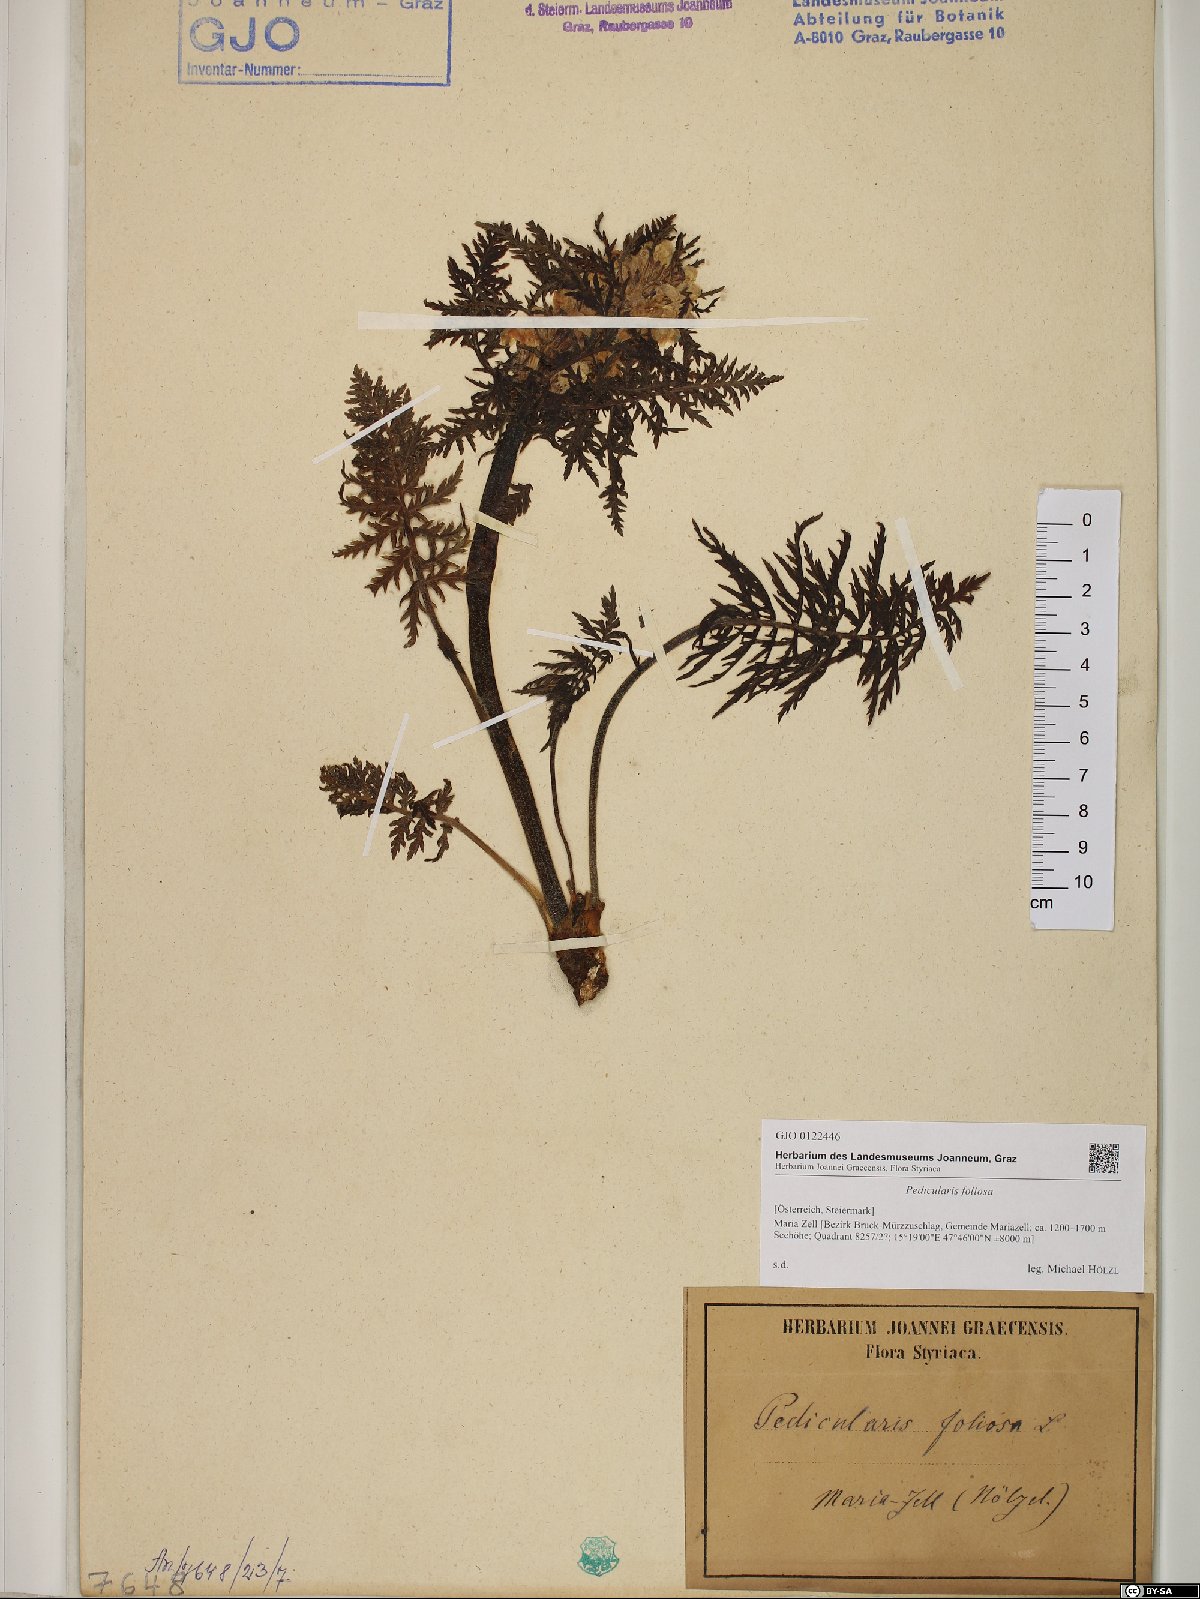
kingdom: Plantae
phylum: Tracheophyta
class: Magnoliopsida
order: Lamiales
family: Orobanchaceae
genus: Pedicularis
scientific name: Pedicularis foliosa
